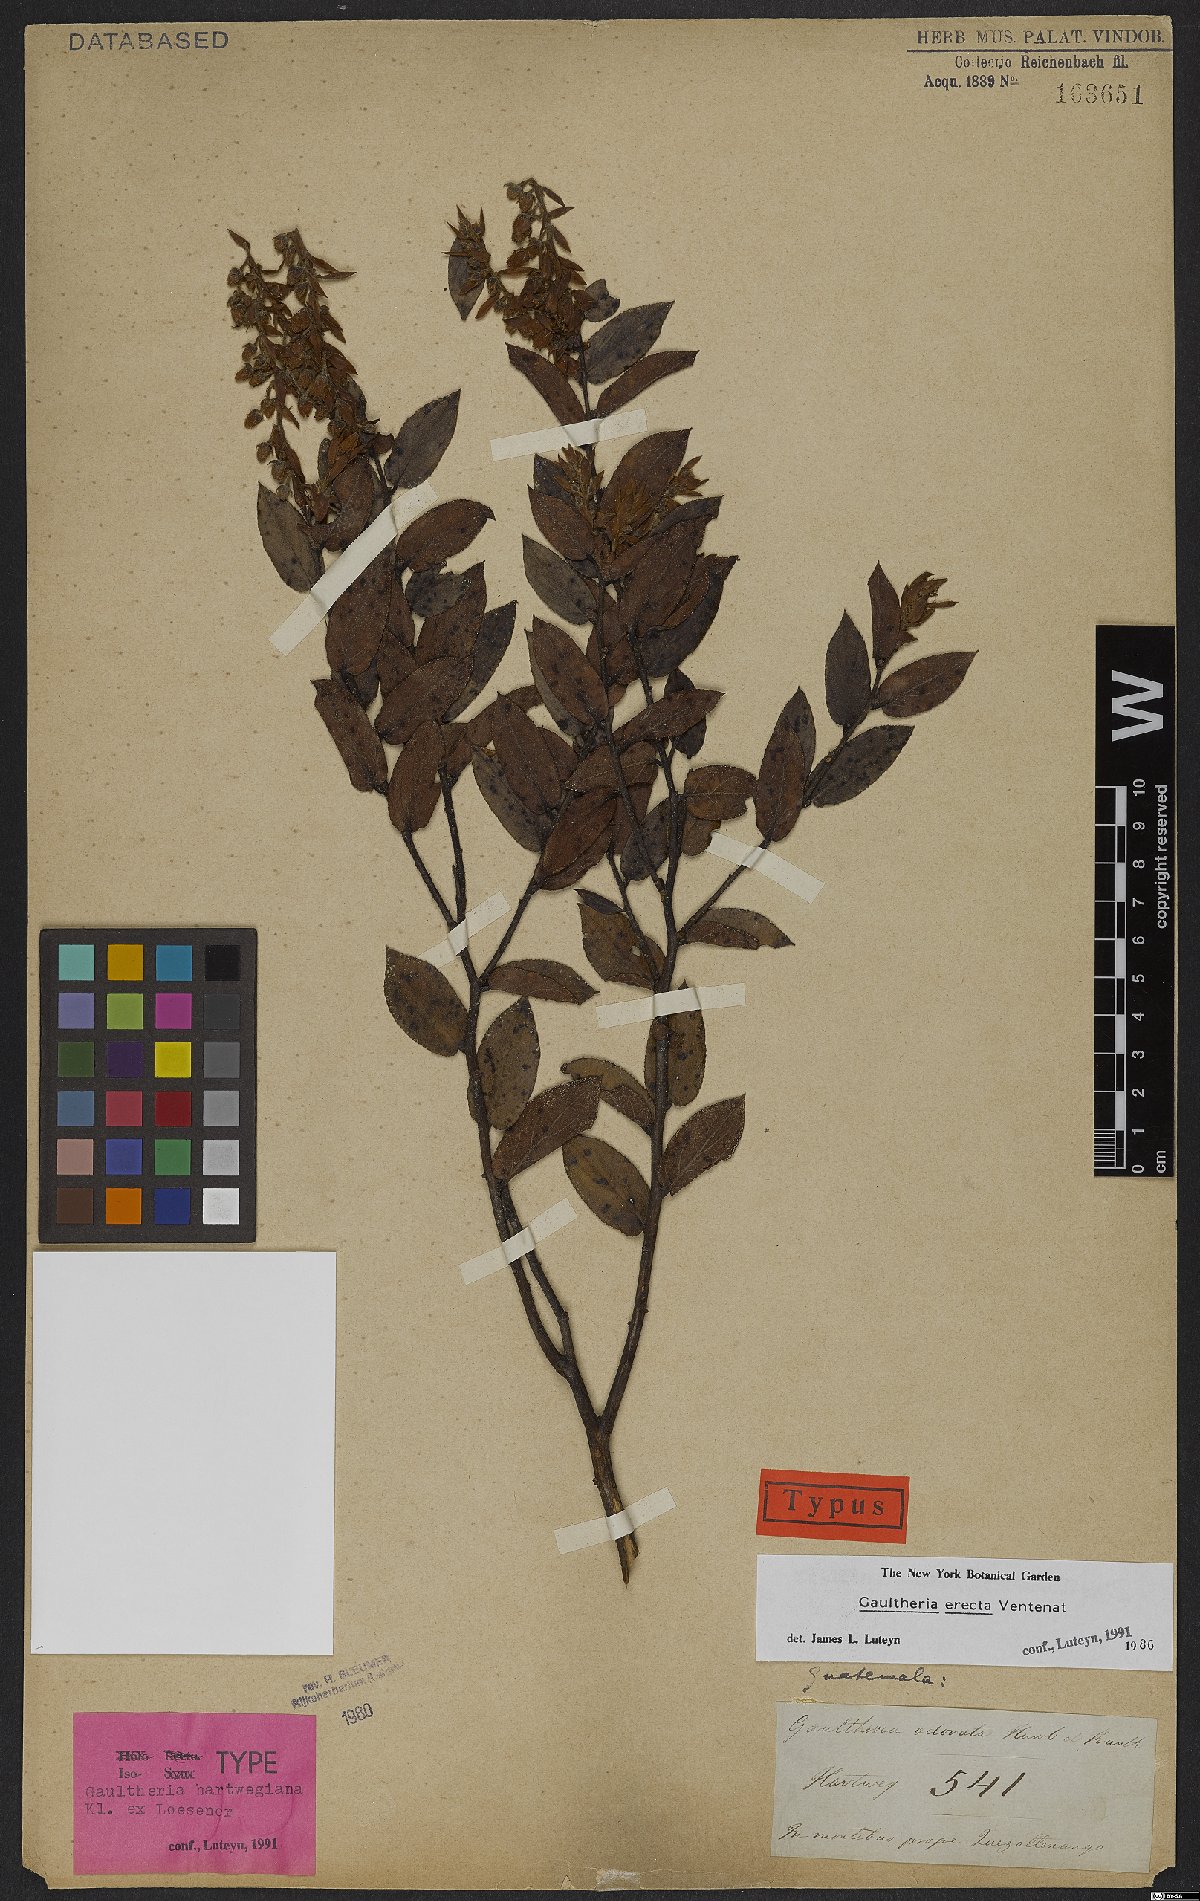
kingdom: Plantae
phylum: Tracheophyta
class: Magnoliopsida
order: Ericales
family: Ericaceae
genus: Gaultheria
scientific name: Gaultheria erecta
